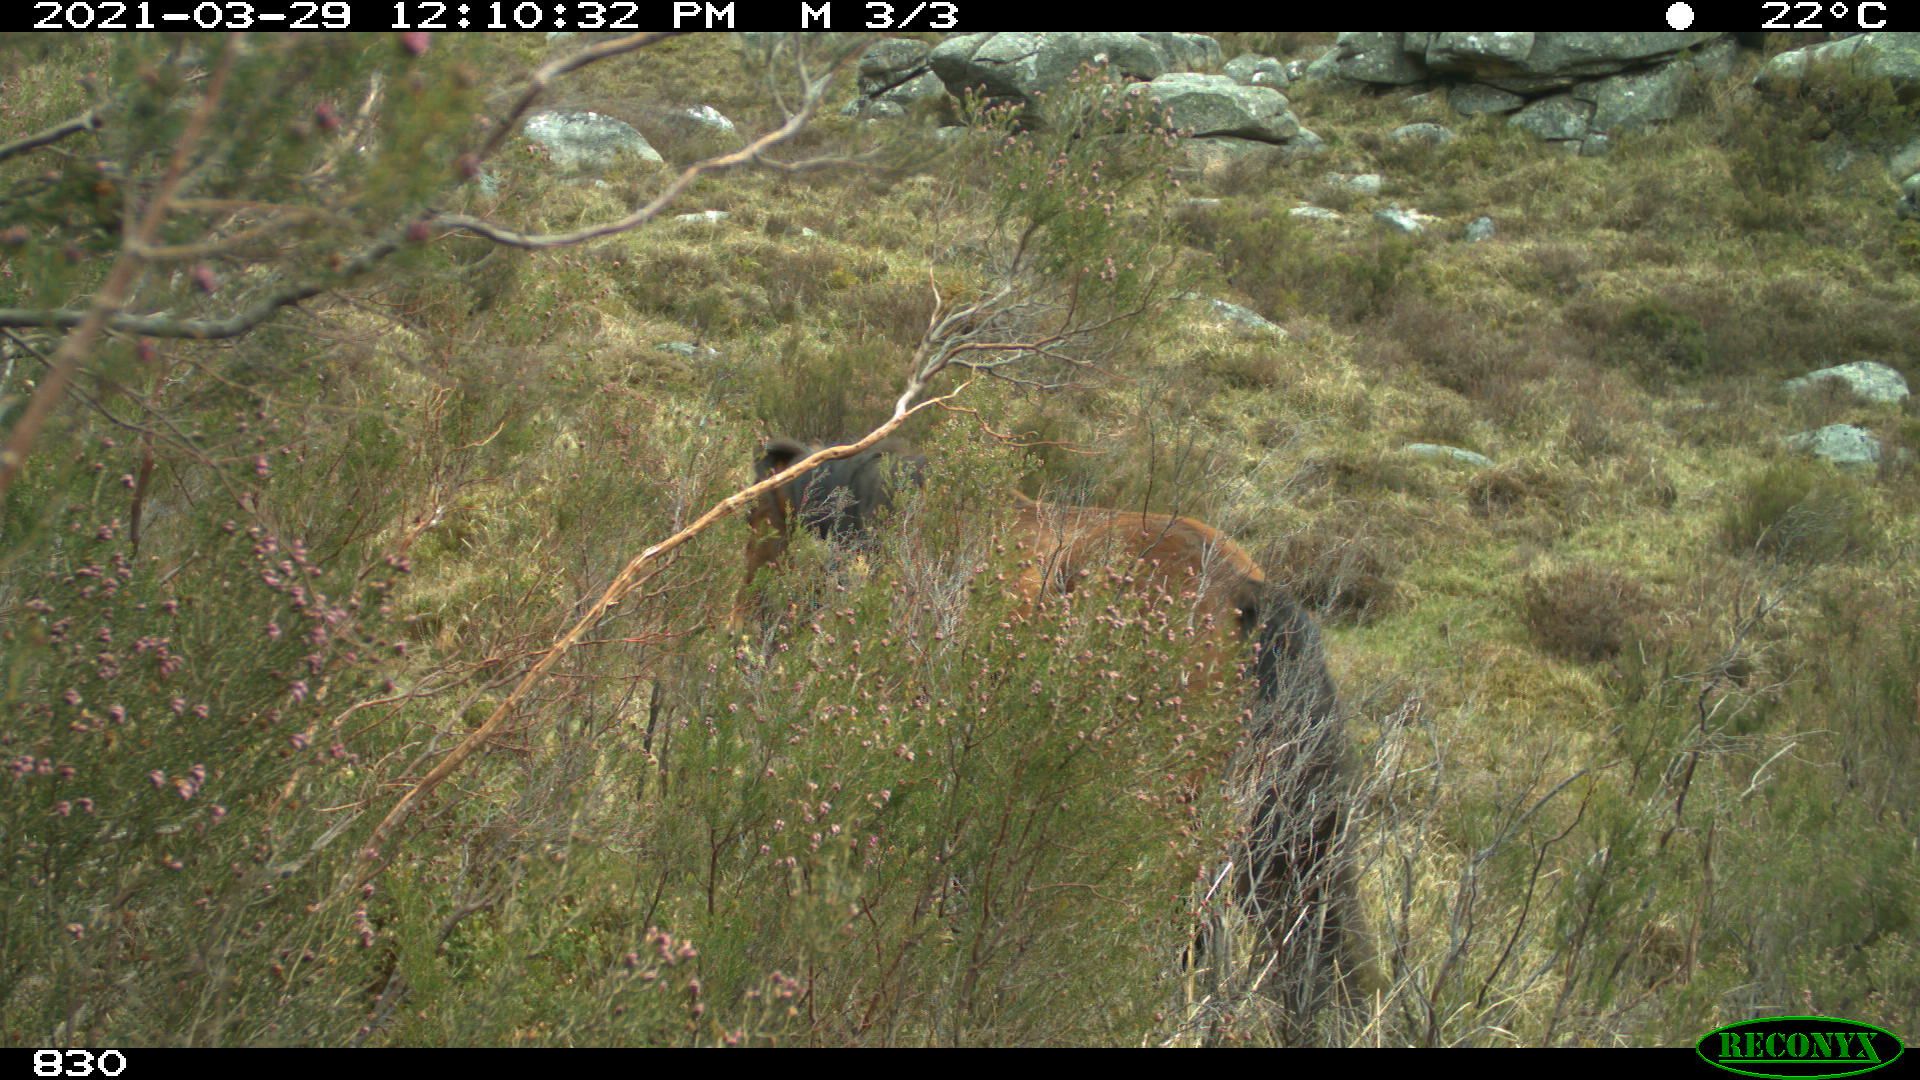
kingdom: Animalia
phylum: Chordata
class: Mammalia
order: Perissodactyla
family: Equidae
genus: Equus
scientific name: Equus caballus
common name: Horse
